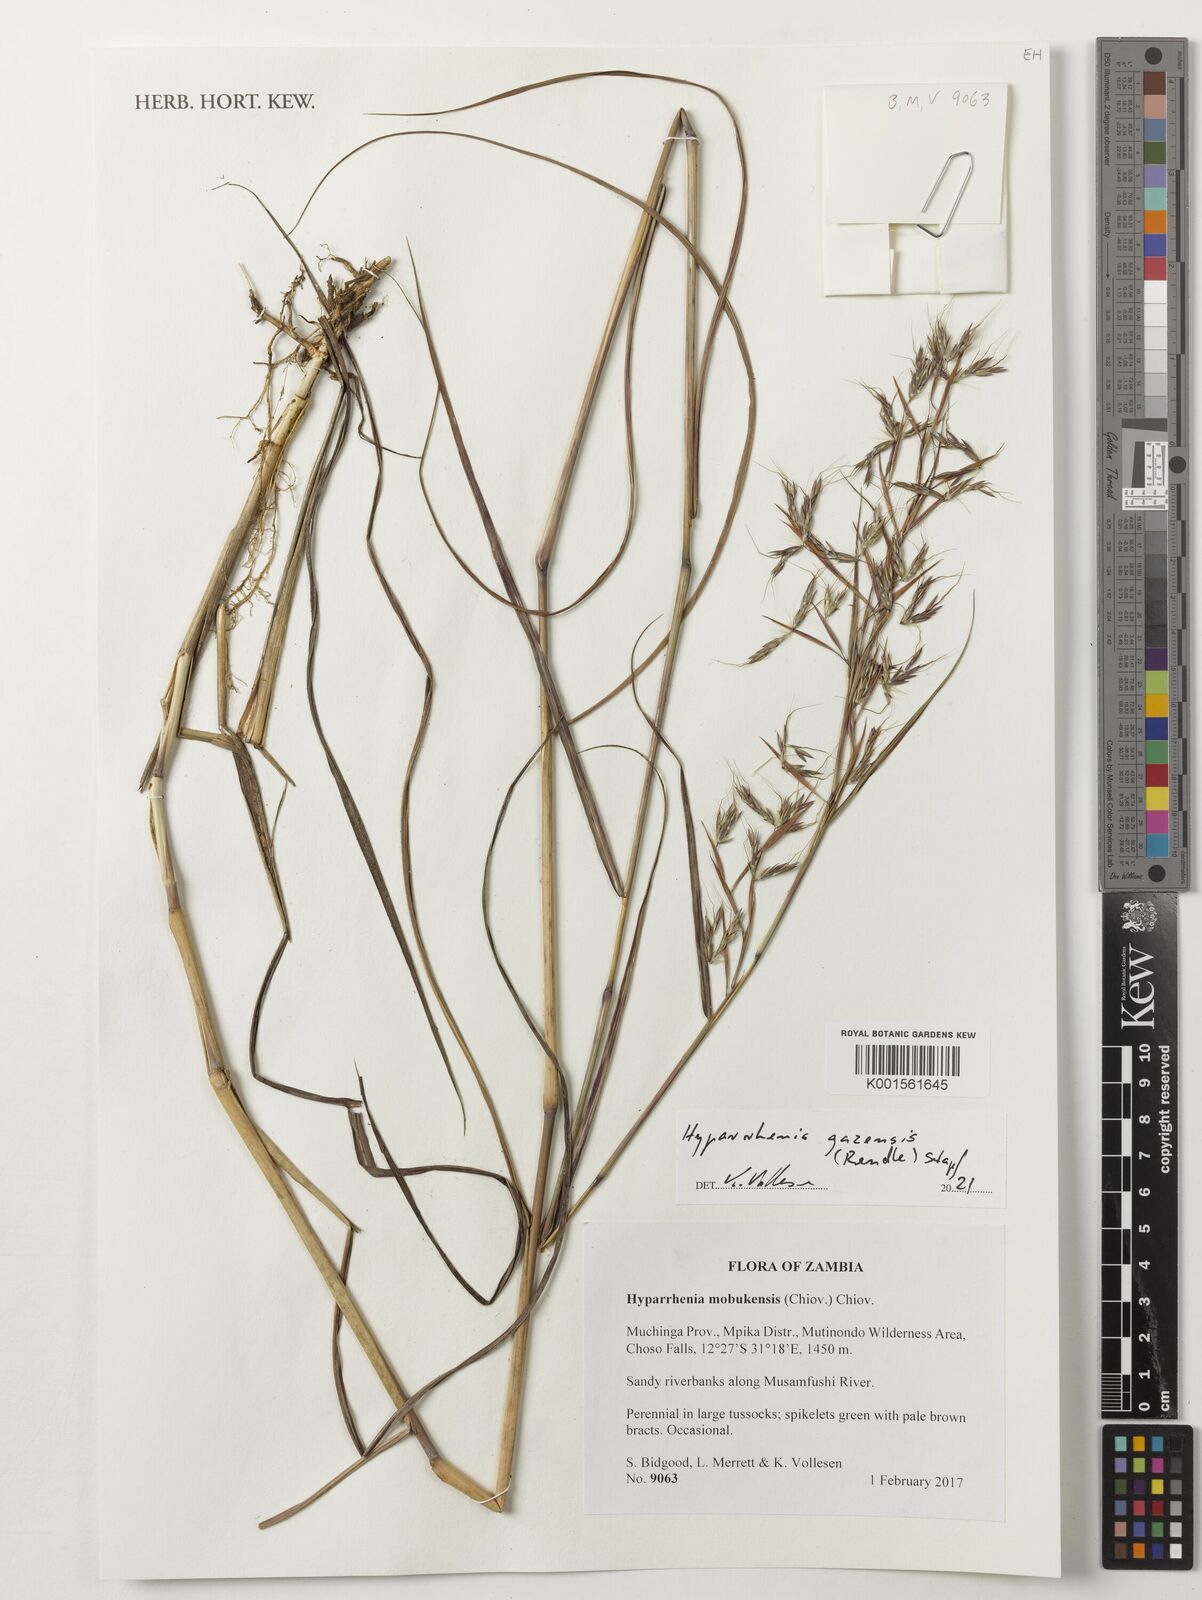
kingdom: Plantae
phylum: Tracheophyta
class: Liliopsida
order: Poales
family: Poaceae
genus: Hyparrhenia
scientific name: Hyparrhenia gazensis
